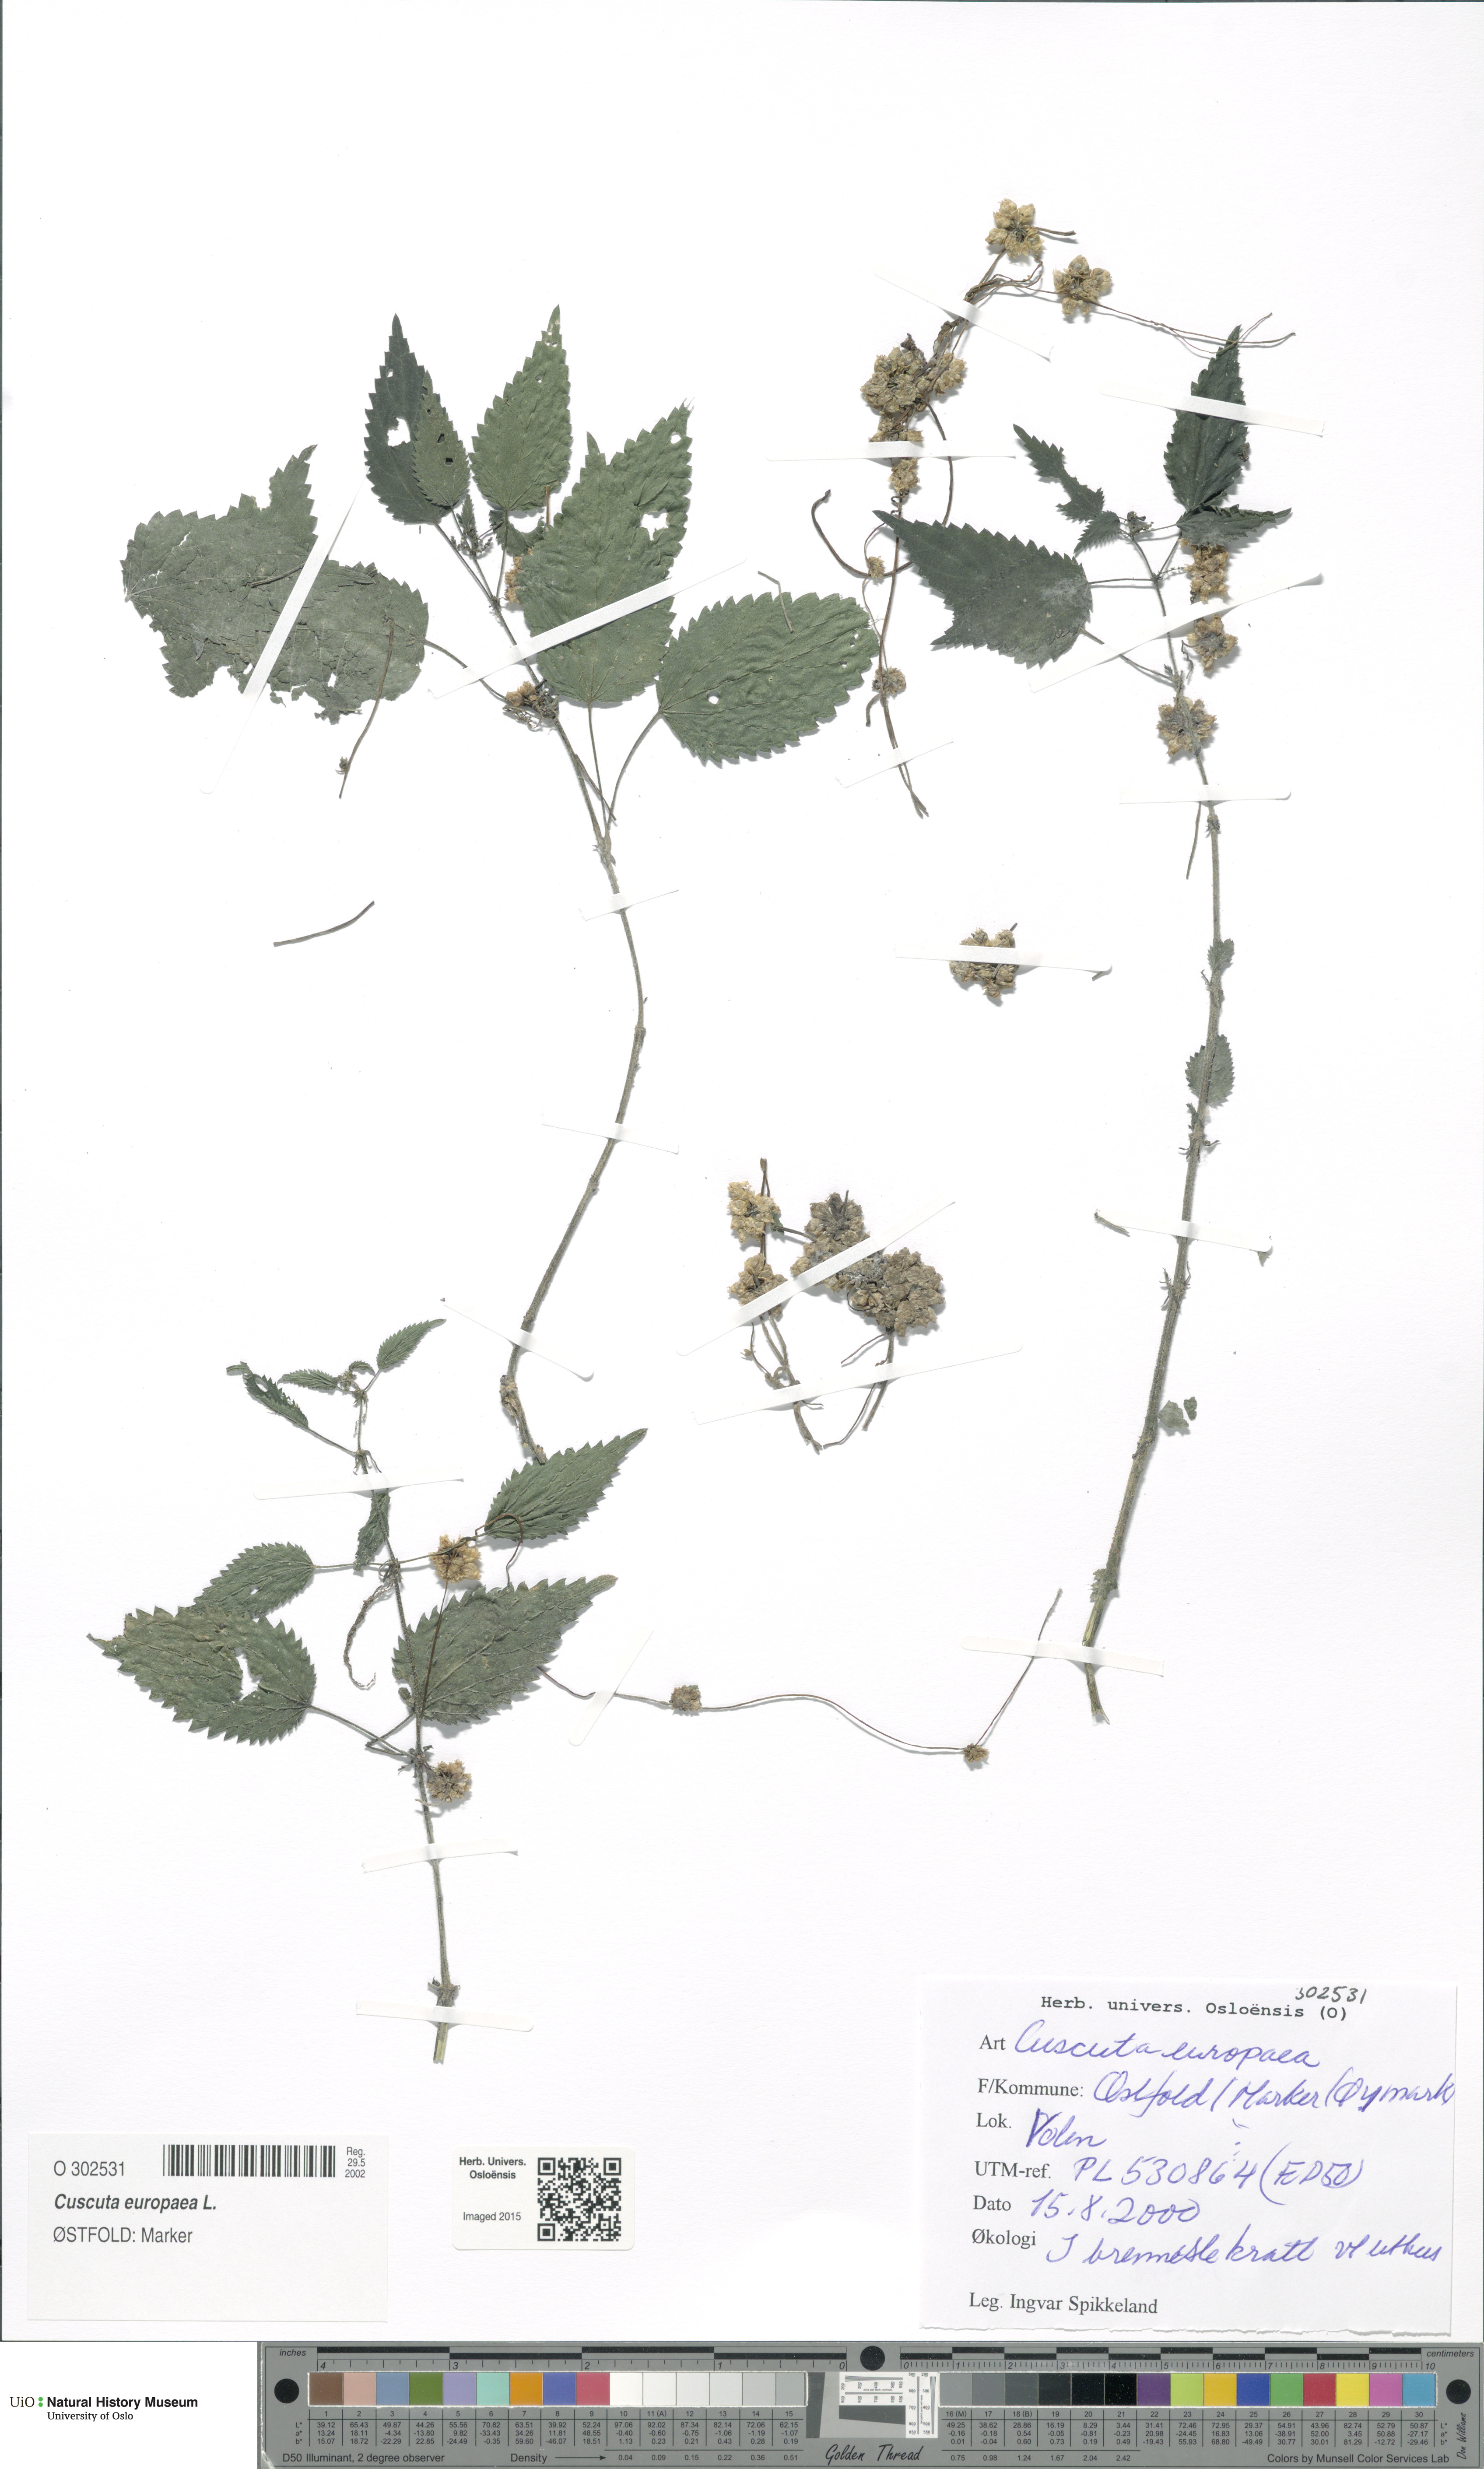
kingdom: Plantae
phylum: Tracheophyta
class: Magnoliopsida
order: Solanales
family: Convolvulaceae
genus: Cuscuta
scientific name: Cuscuta europaea
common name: Greater dodder
